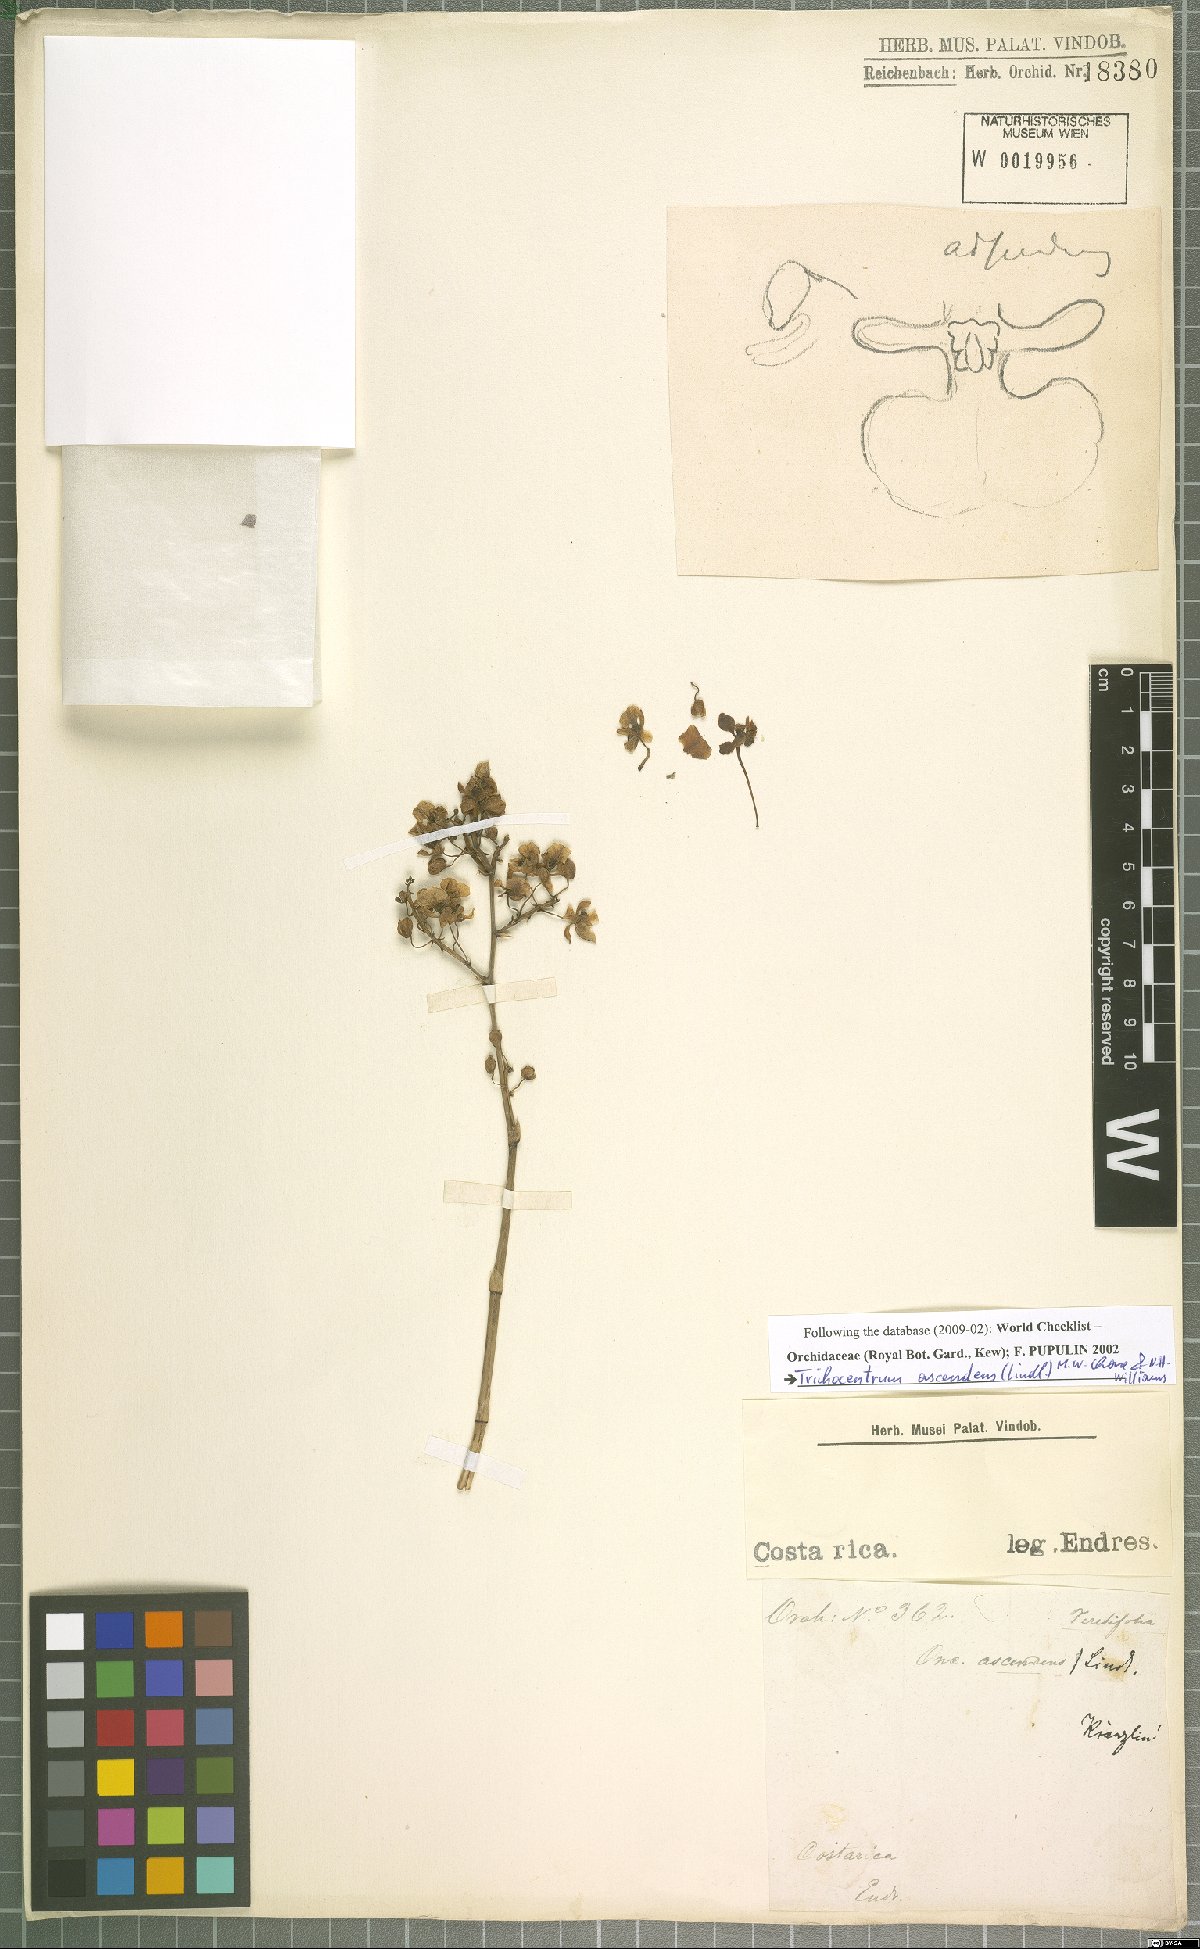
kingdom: Plantae
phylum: Tracheophyta
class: Liliopsida
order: Asparagales
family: Orchidaceae
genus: Trichocentrum
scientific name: Trichocentrum ascendens
